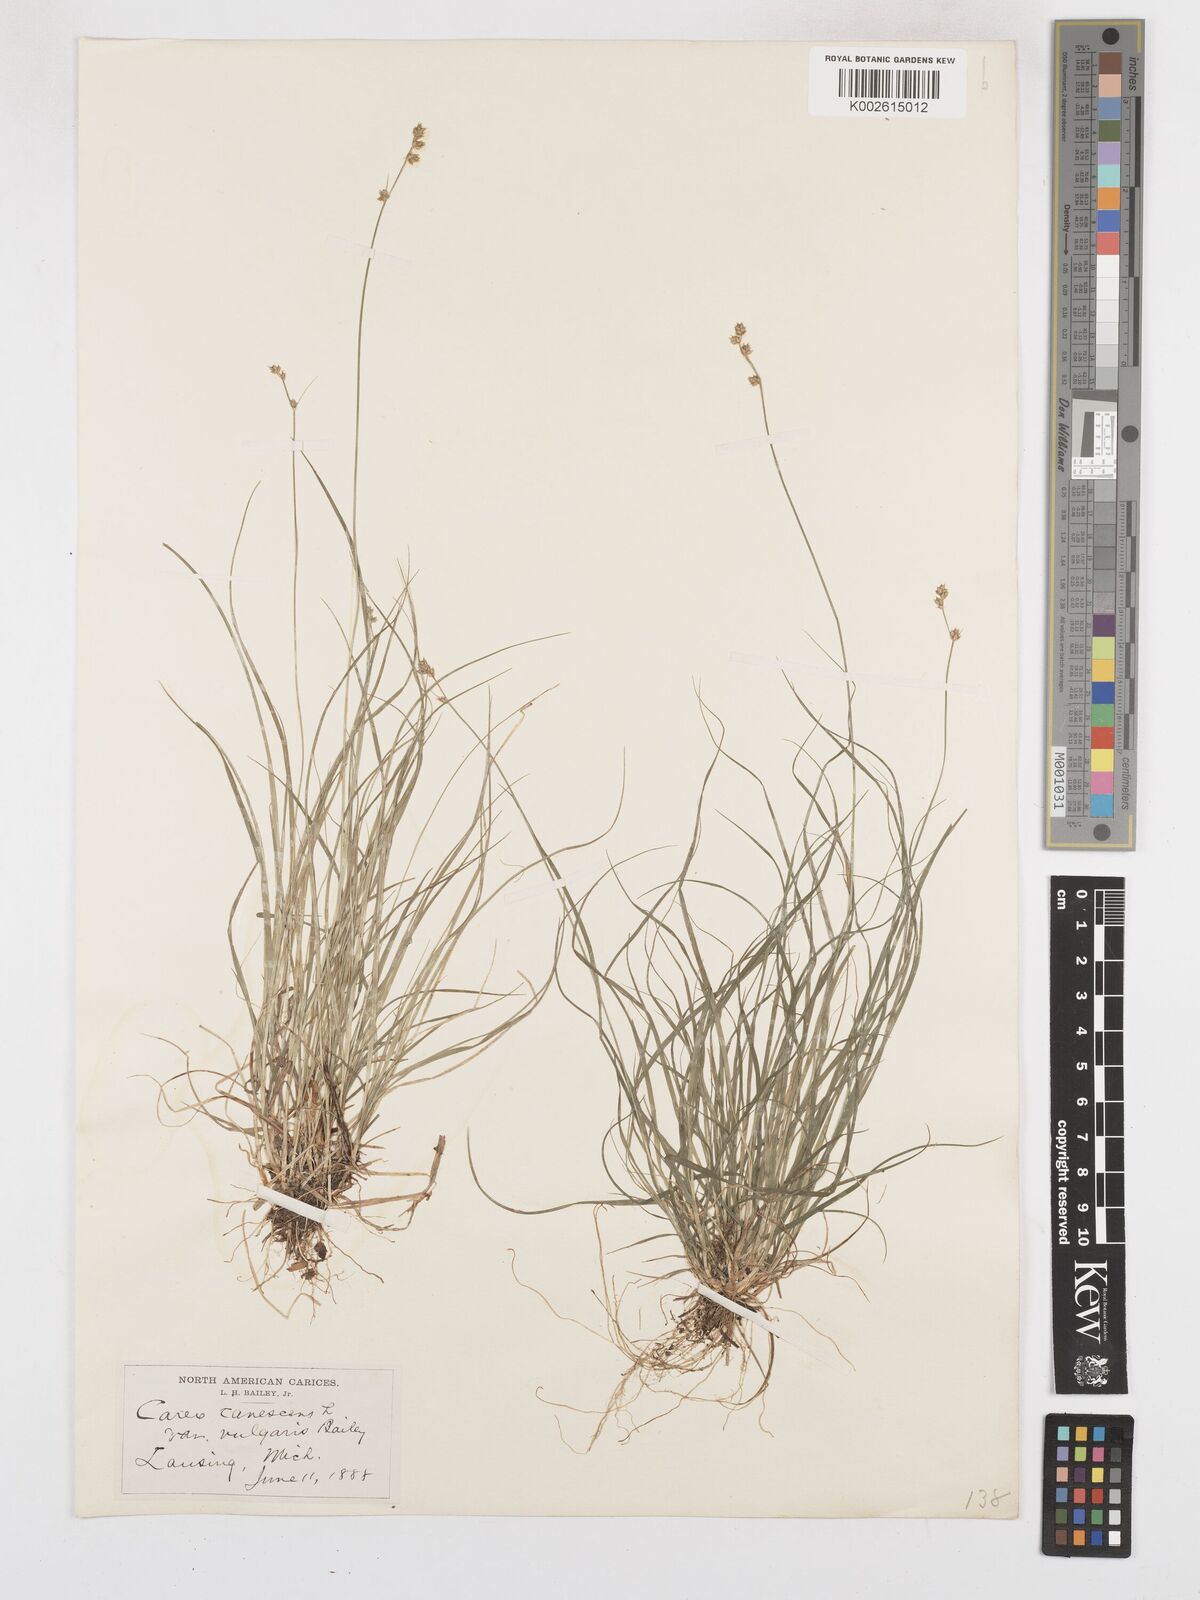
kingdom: Plantae
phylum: Tracheophyta
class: Liliopsida
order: Poales
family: Cyperaceae
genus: Carex
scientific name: Carex seorsa
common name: Swamp star sedge
